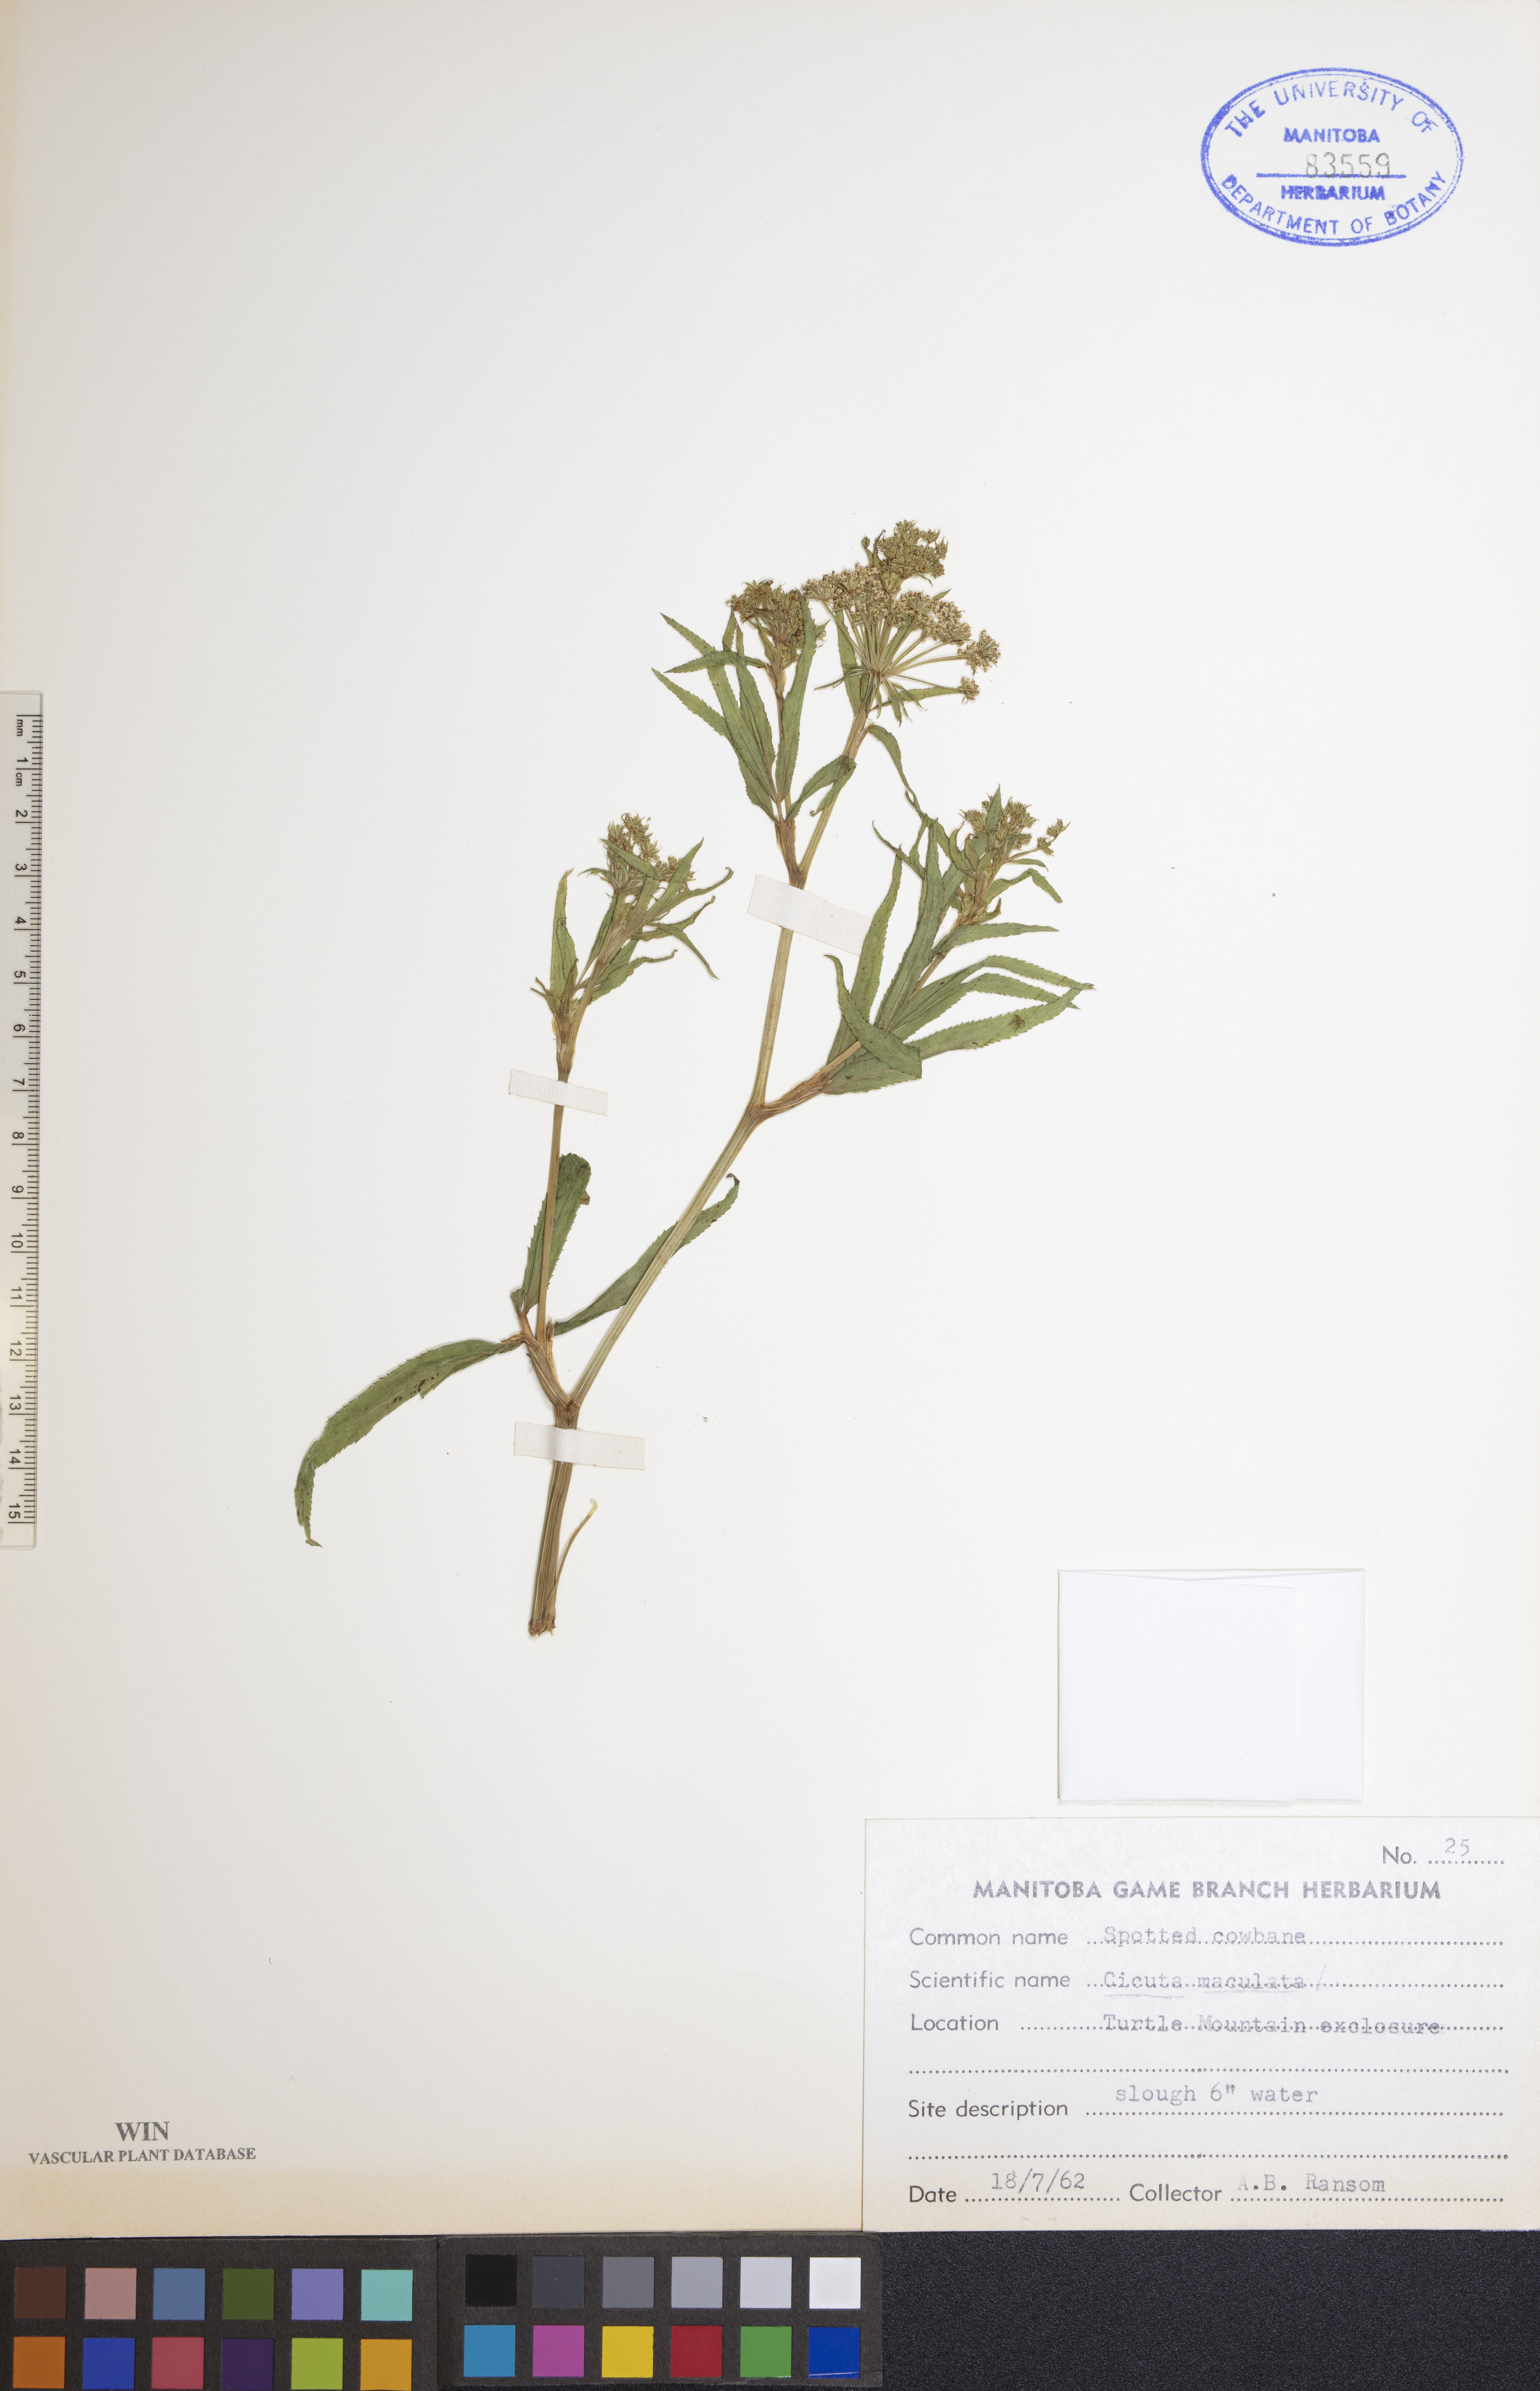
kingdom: Plantae
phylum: Tracheophyta
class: Magnoliopsida
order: Apiales
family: Apiaceae
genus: Cicuta
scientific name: Cicuta maculata
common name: Spotted cowbane
